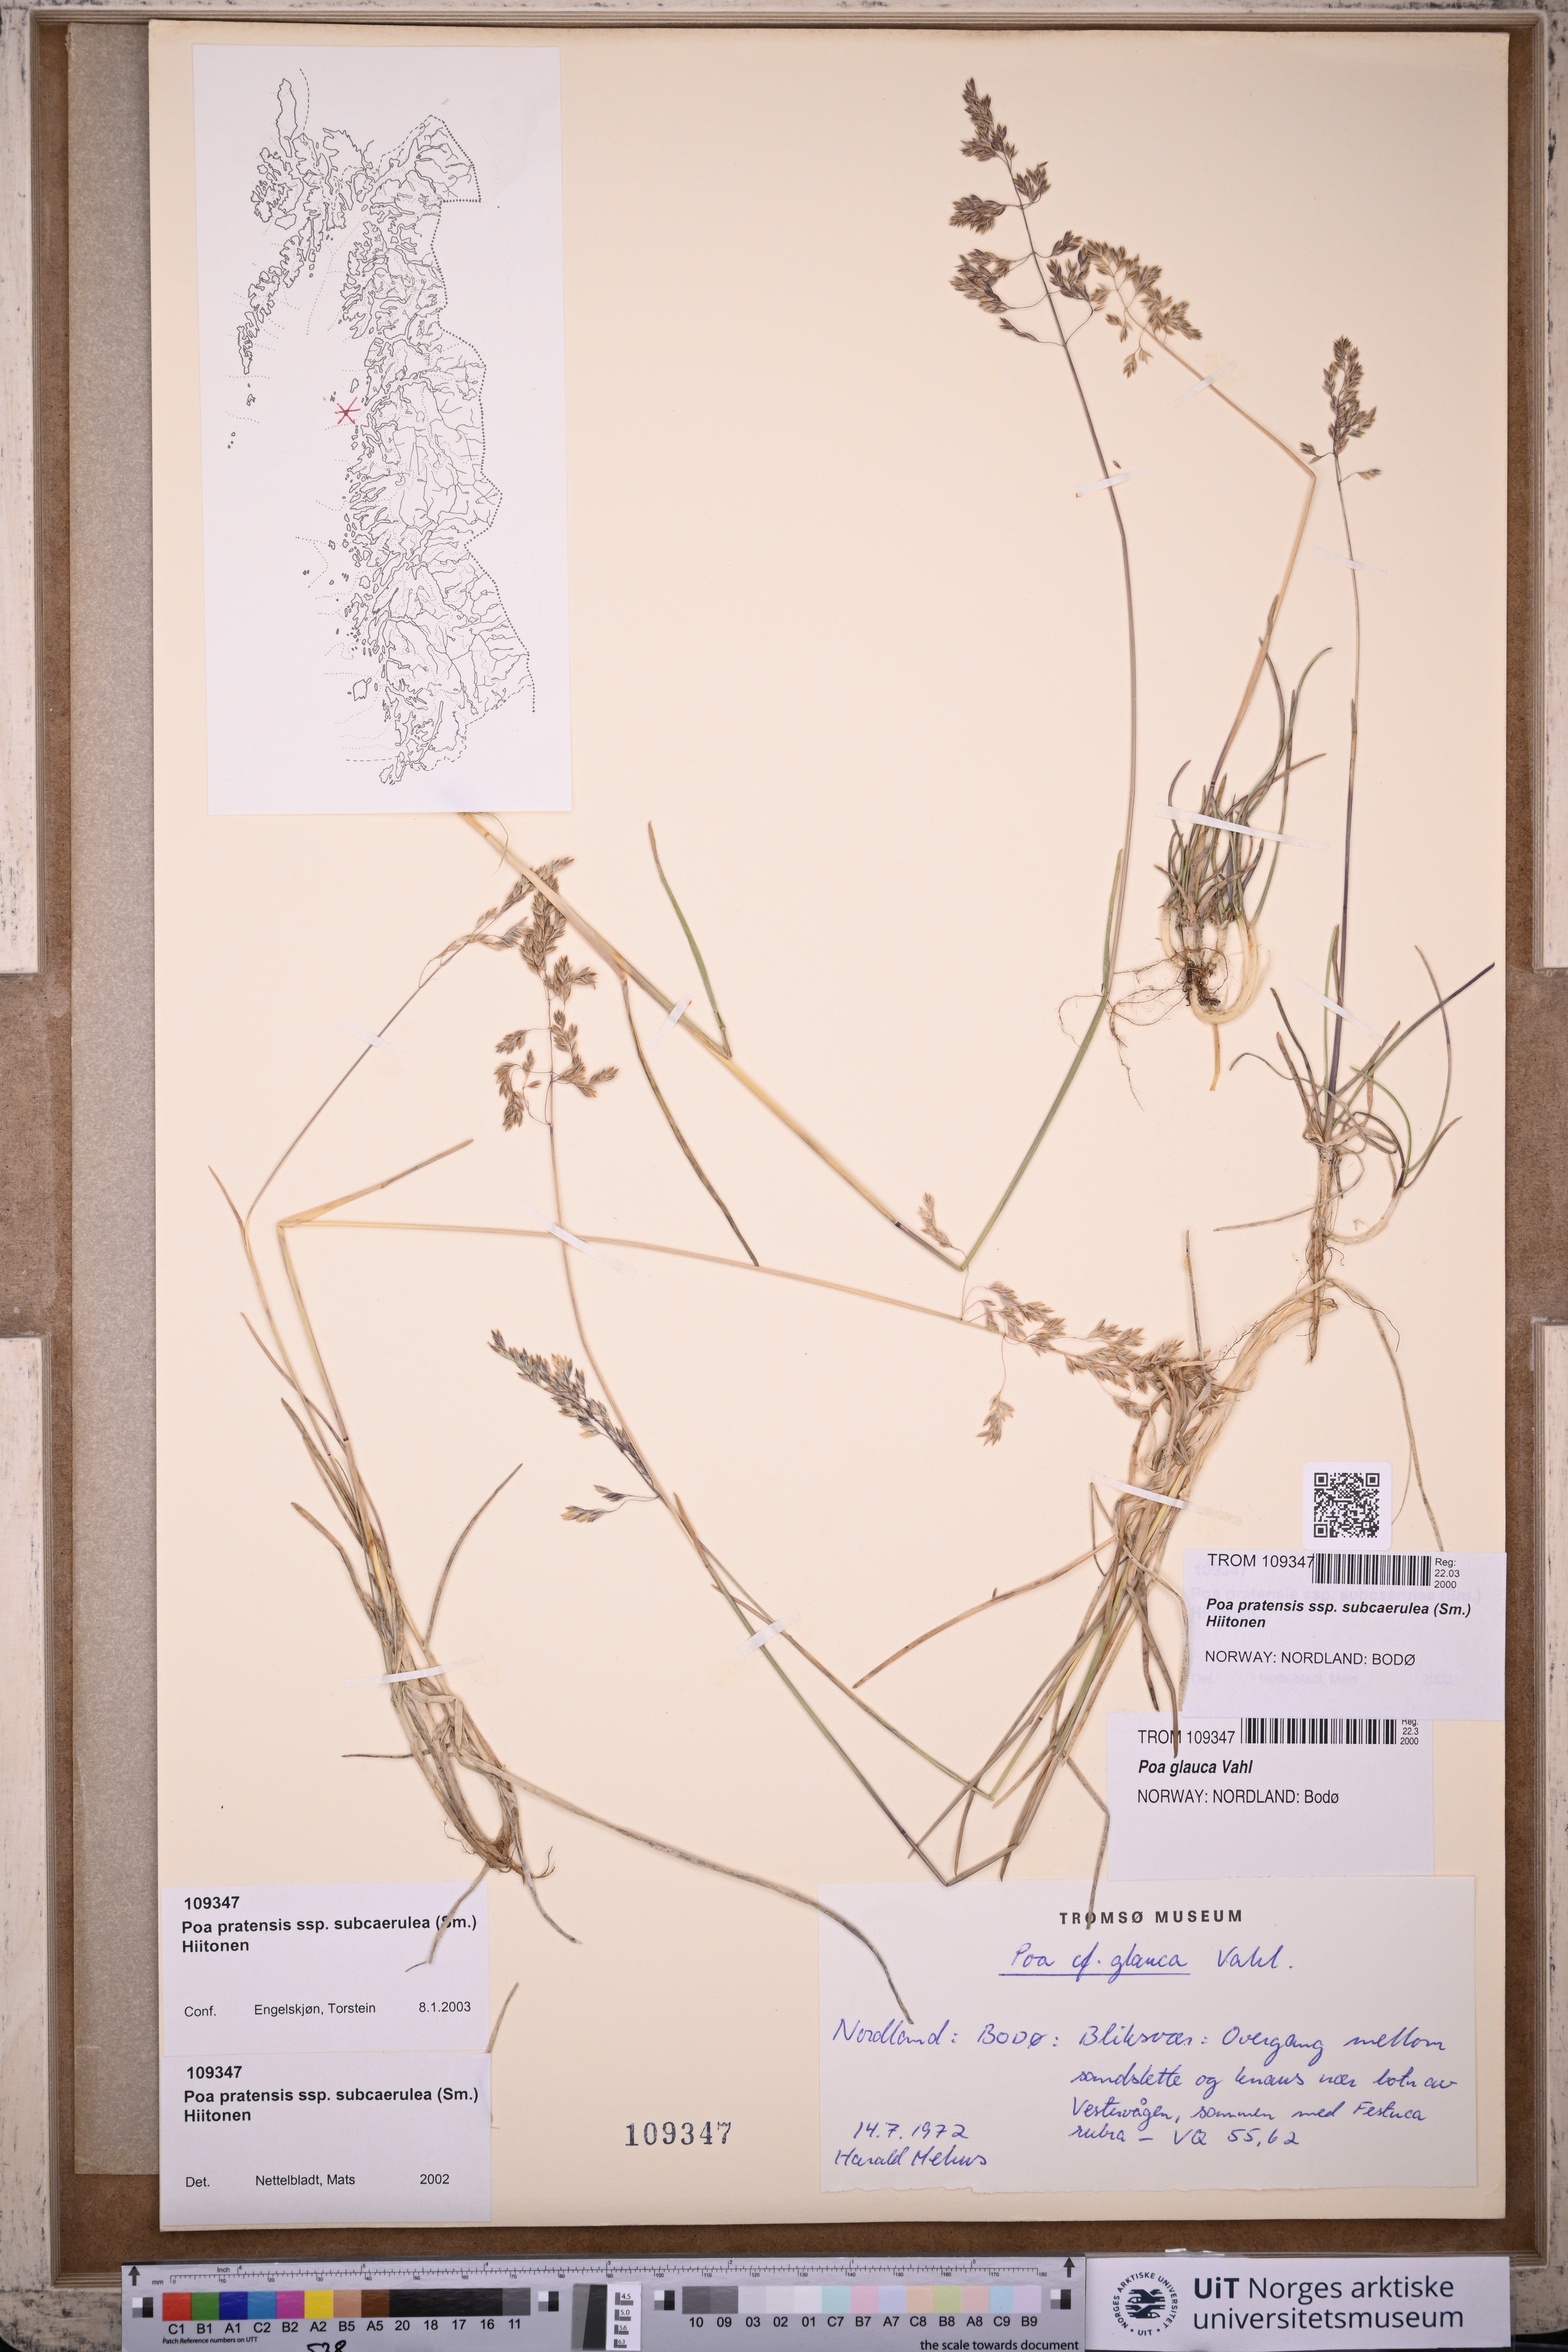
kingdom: Plantae
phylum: Tracheophyta
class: Liliopsida
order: Poales
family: Poaceae
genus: Poa
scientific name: Poa humilis
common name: Spreading meadow-grass
